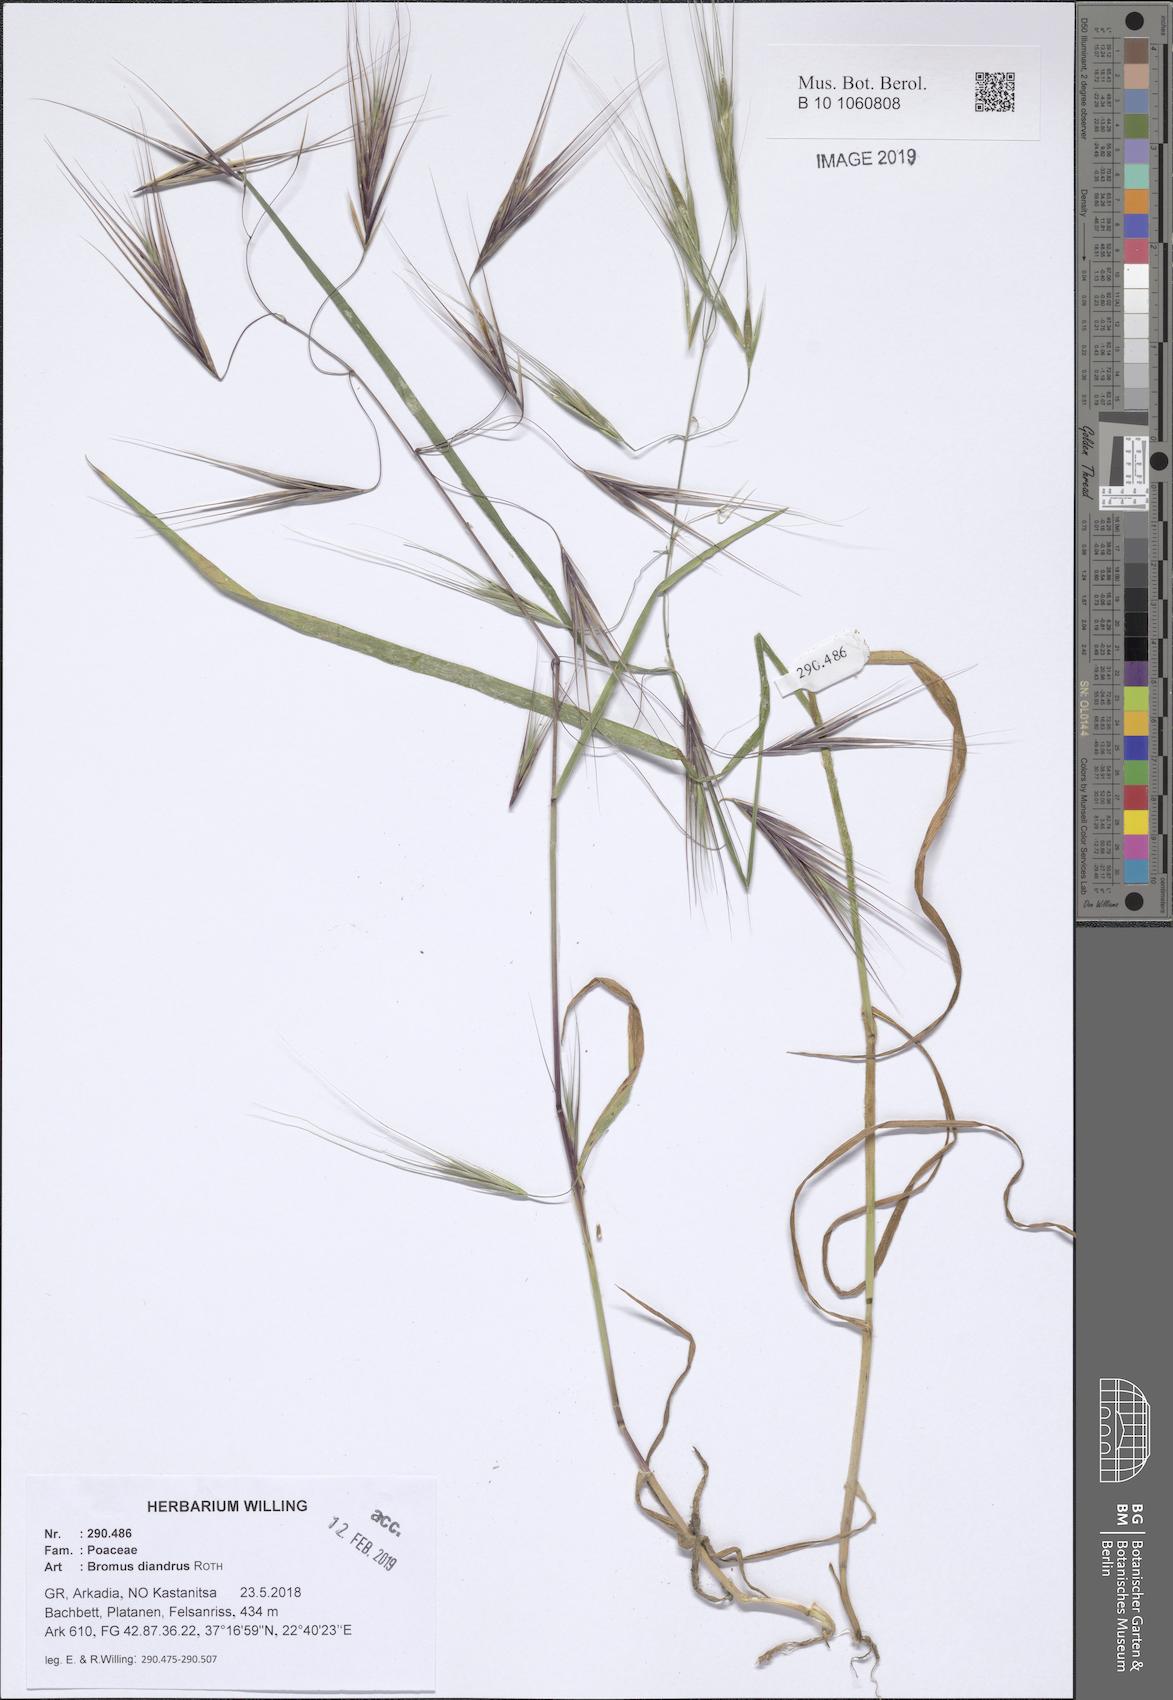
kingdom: Plantae
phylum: Tracheophyta
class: Liliopsida
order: Poales
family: Poaceae
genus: Bromus
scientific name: Bromus diandrus
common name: Ripgut brome
